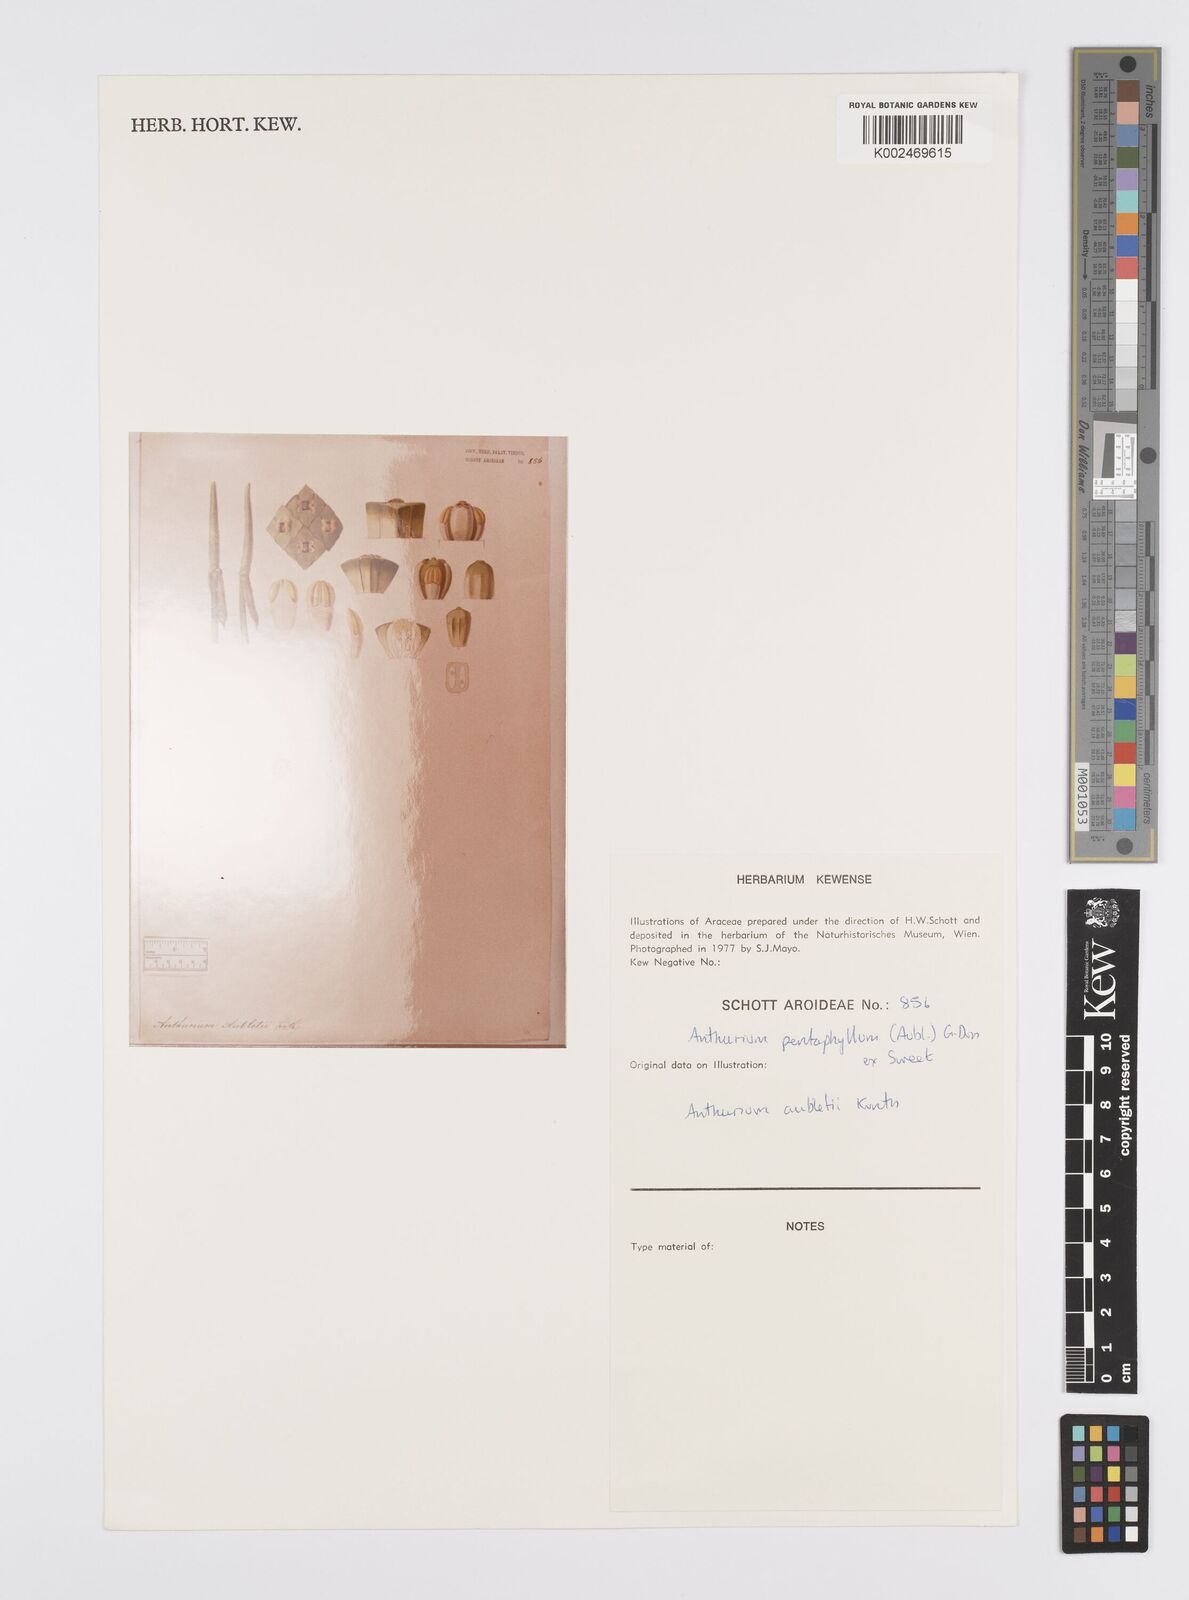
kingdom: Plantae
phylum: Tracheophyta
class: Liliopsida
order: Alismatales
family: Araceae
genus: Anthurium
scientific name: Anthurium pentaphyllum
